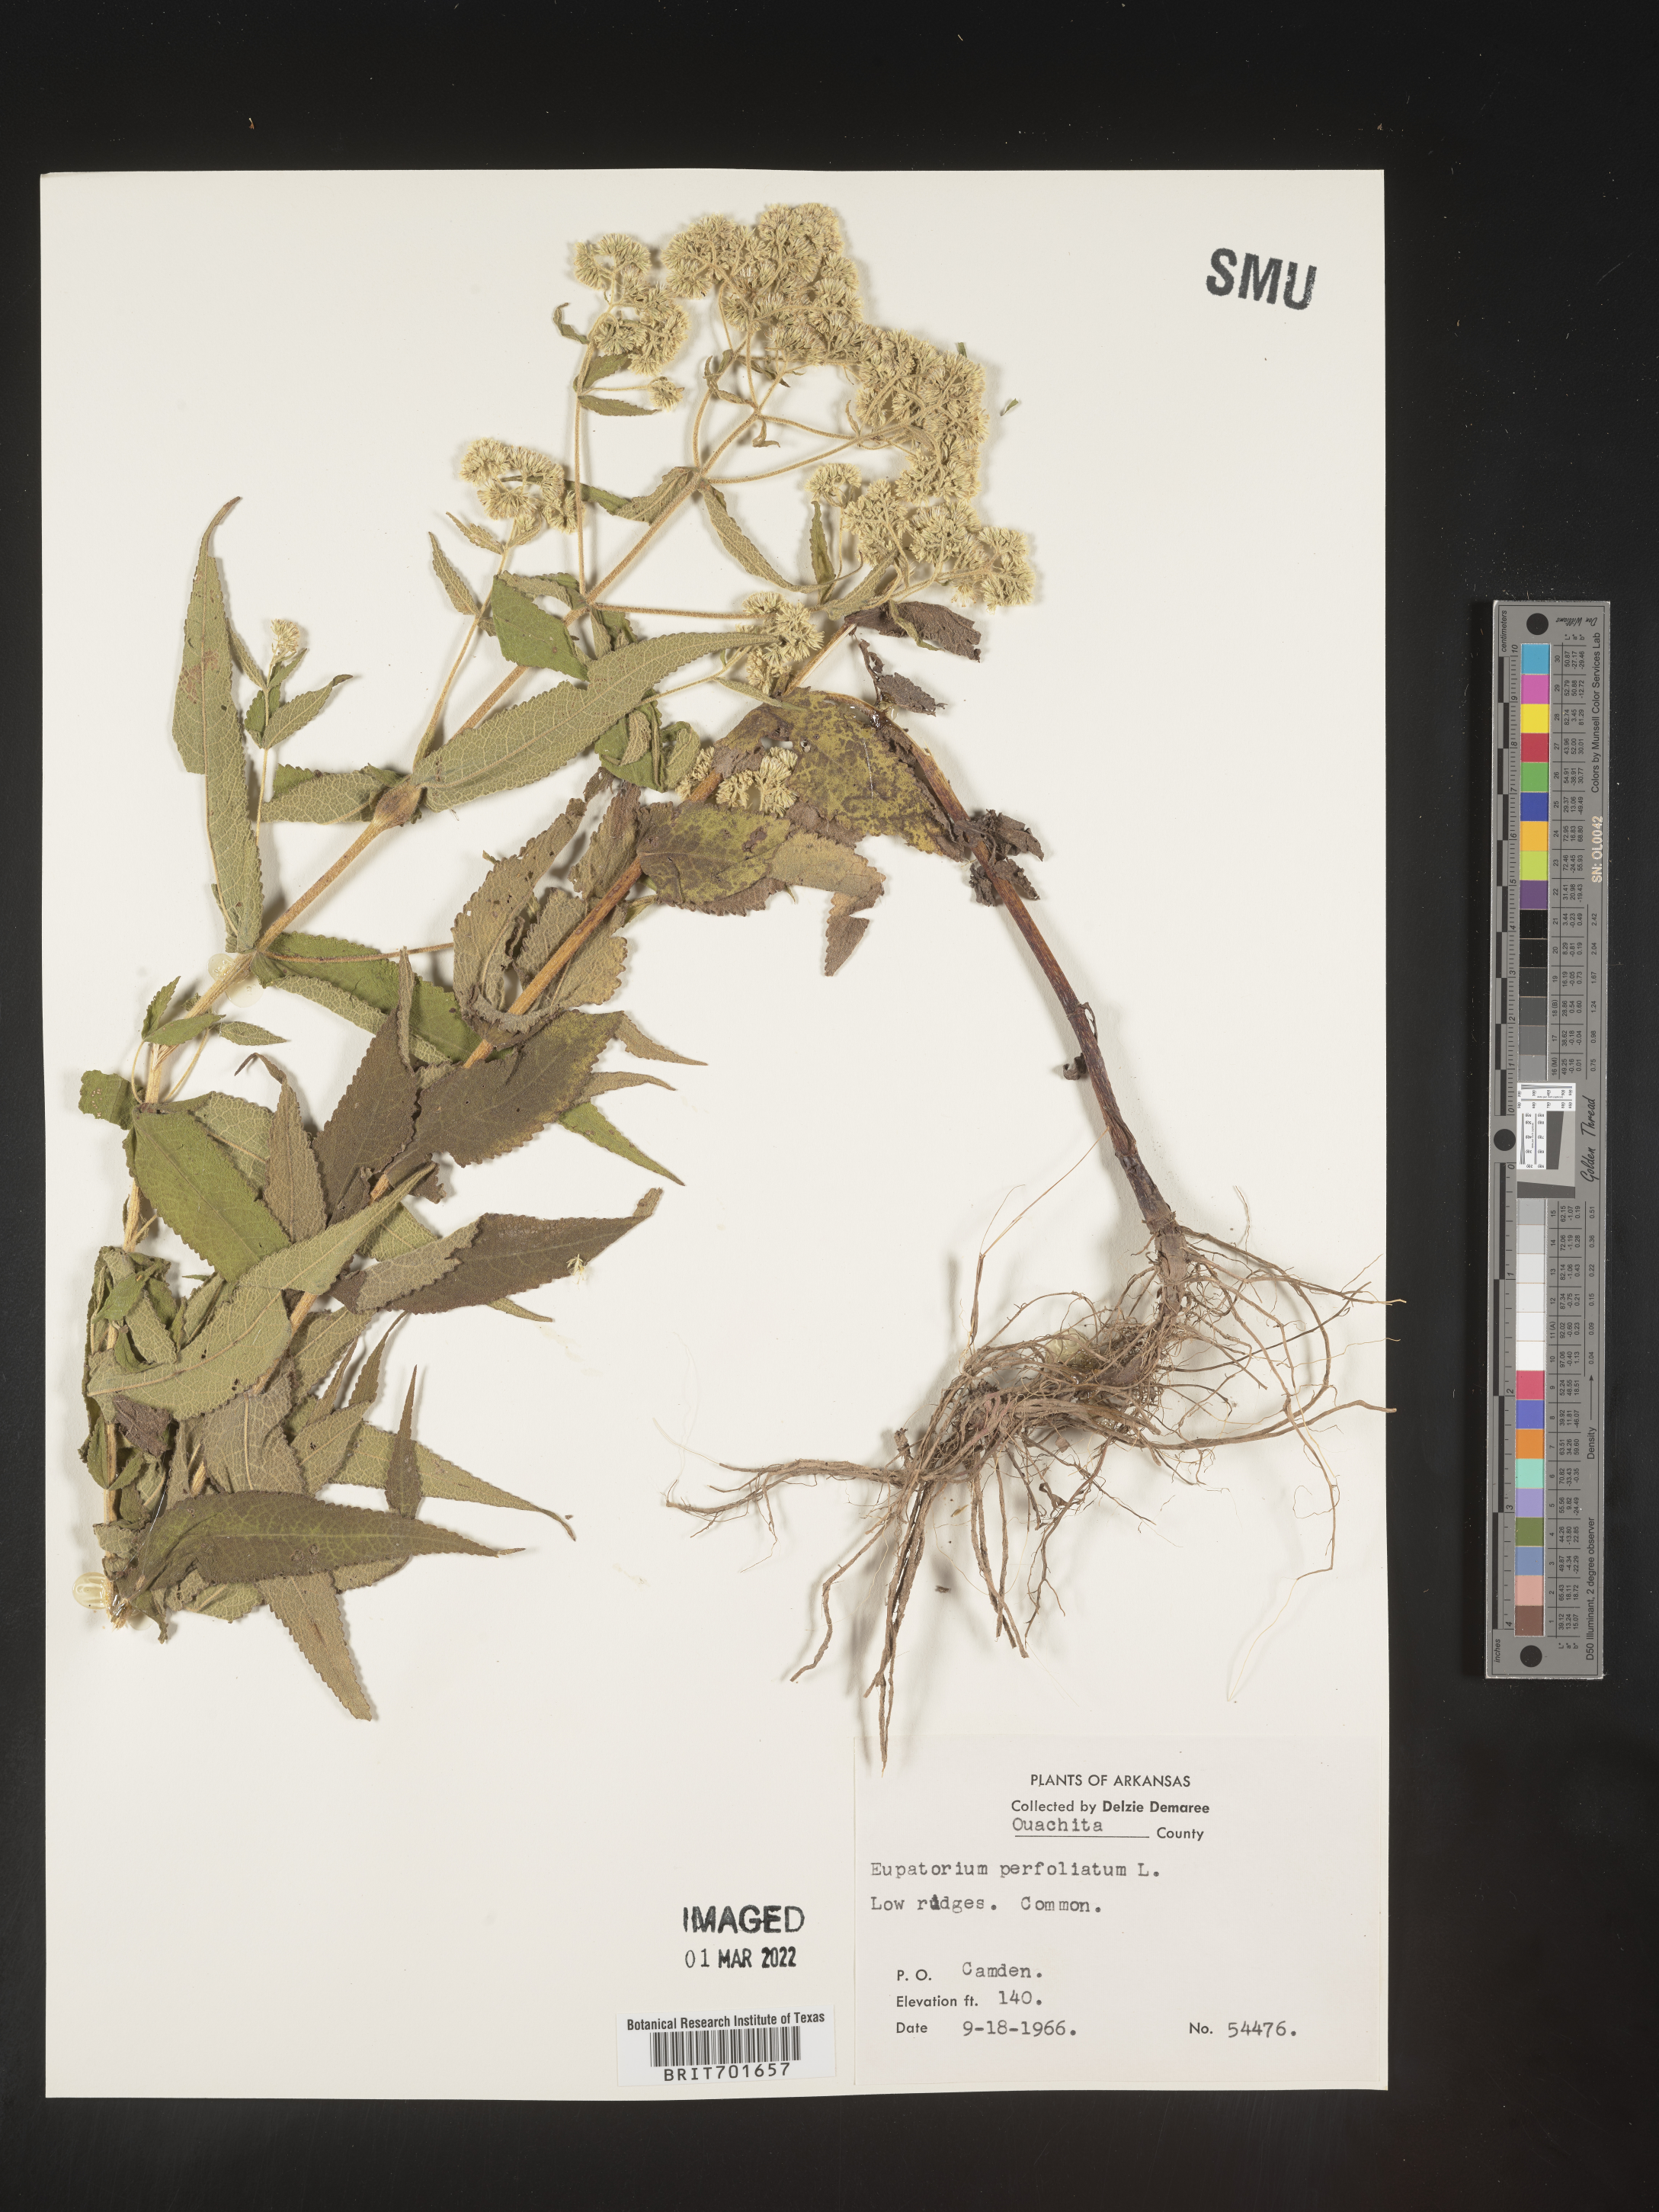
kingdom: Plantae
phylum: Tracheophyta
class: Magnoliopsida
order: Asterales
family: Asteraceae
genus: Eupatorium
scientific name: Eupatorium perfoliatum
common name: Boneset
